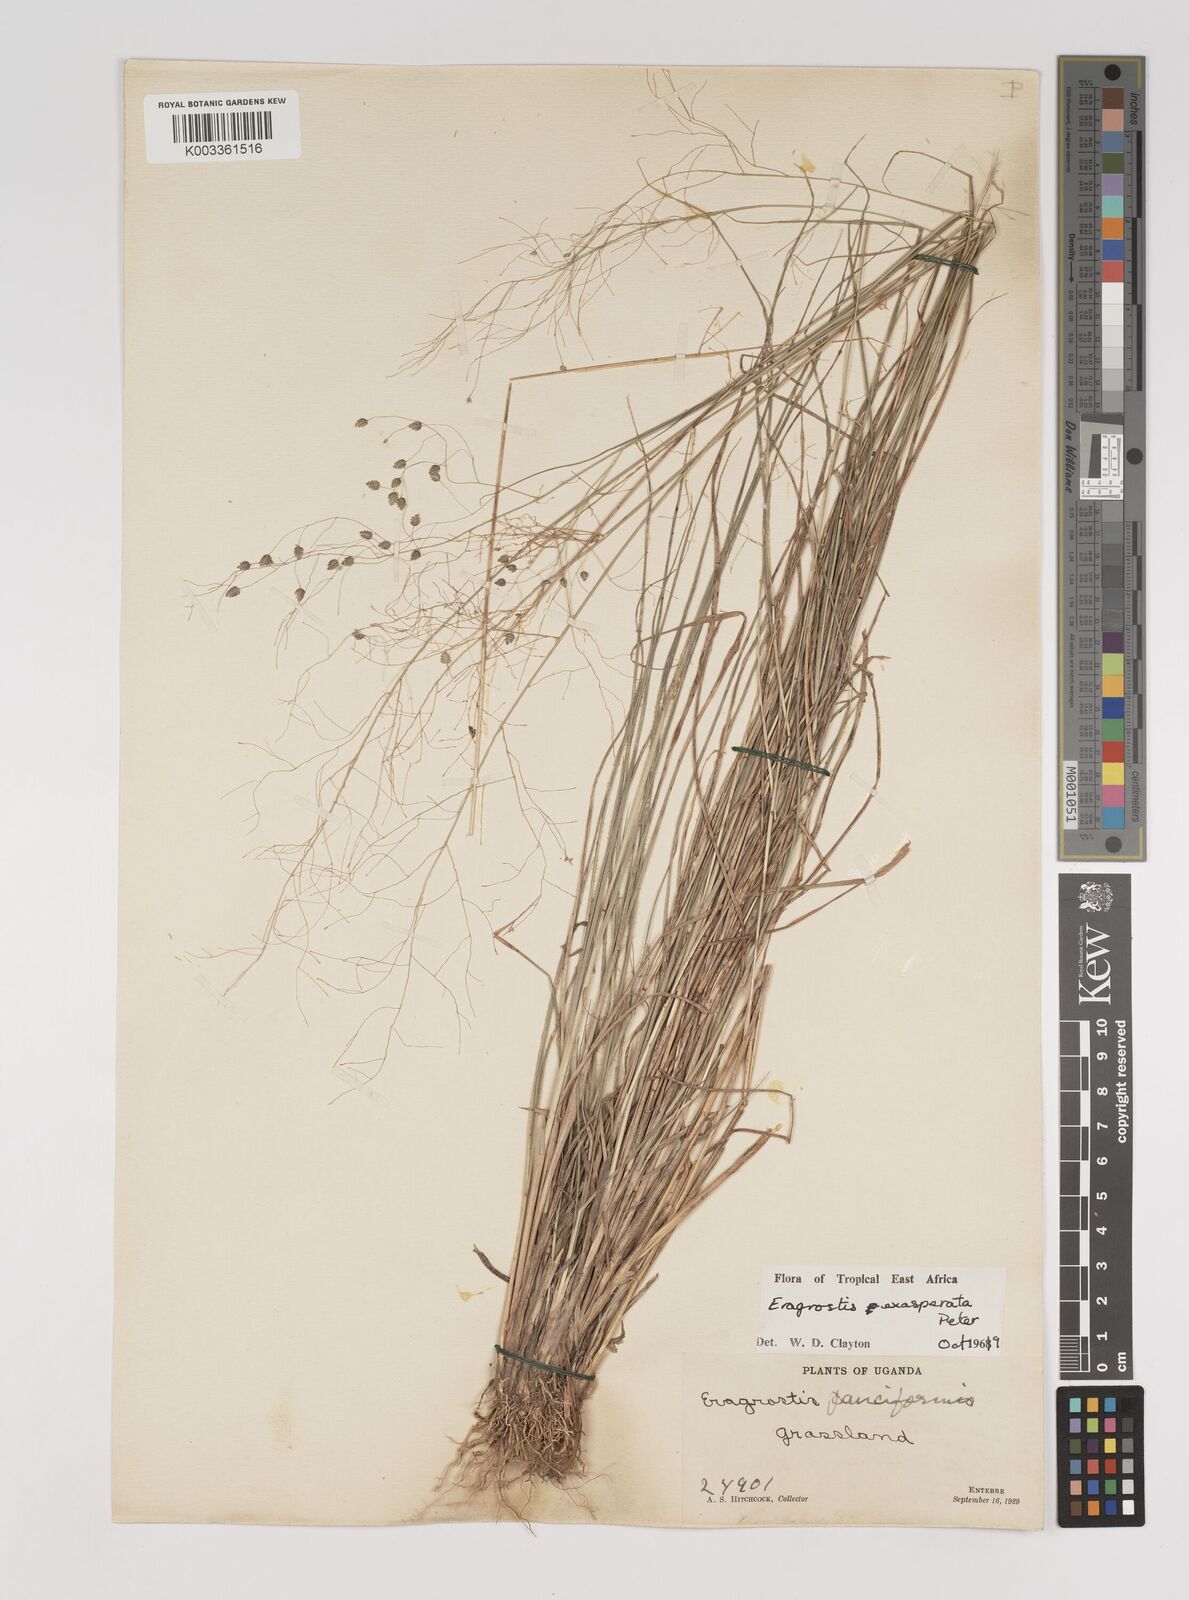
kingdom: Plantae
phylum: Tracheophyta
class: Liliopsida
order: Poales
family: Poaceae
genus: Eragrostis
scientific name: Eragrostis exasperata
